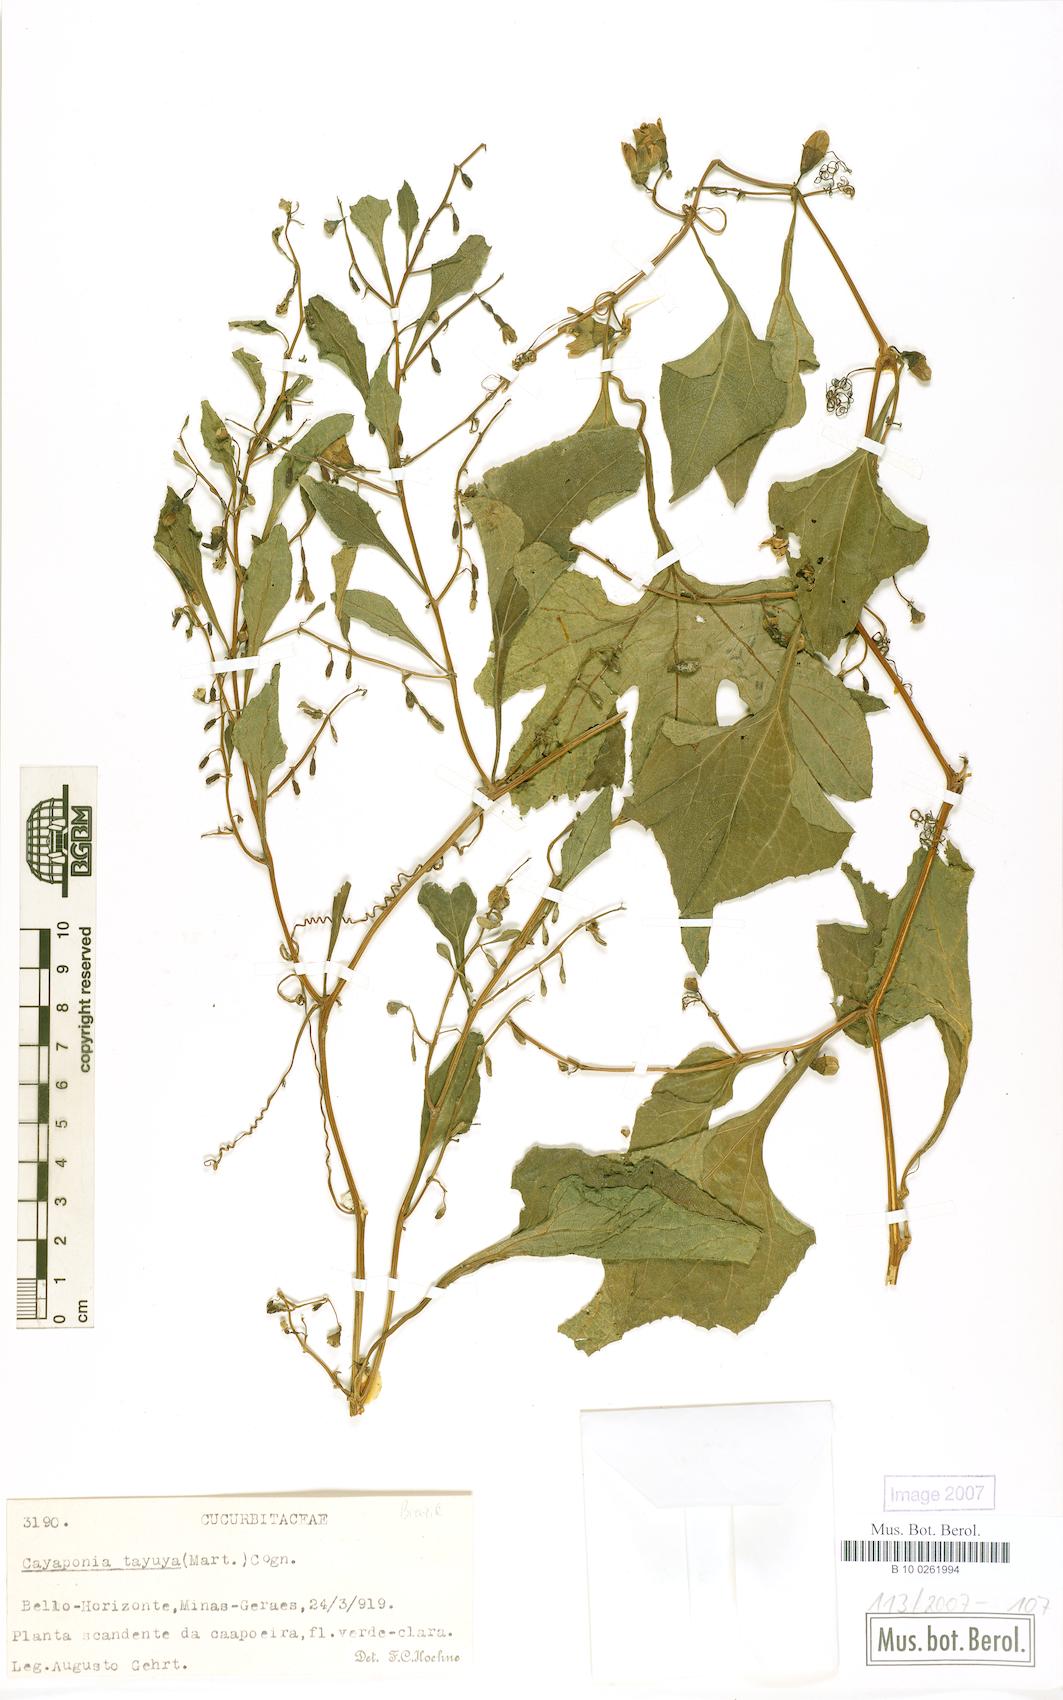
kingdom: Plantae
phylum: Tracheophyta
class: Magnoliopsida
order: Cucurbitales
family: Cucurbitaceae
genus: Cayaponia
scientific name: Cayaponia tayuya
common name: Tayuya
